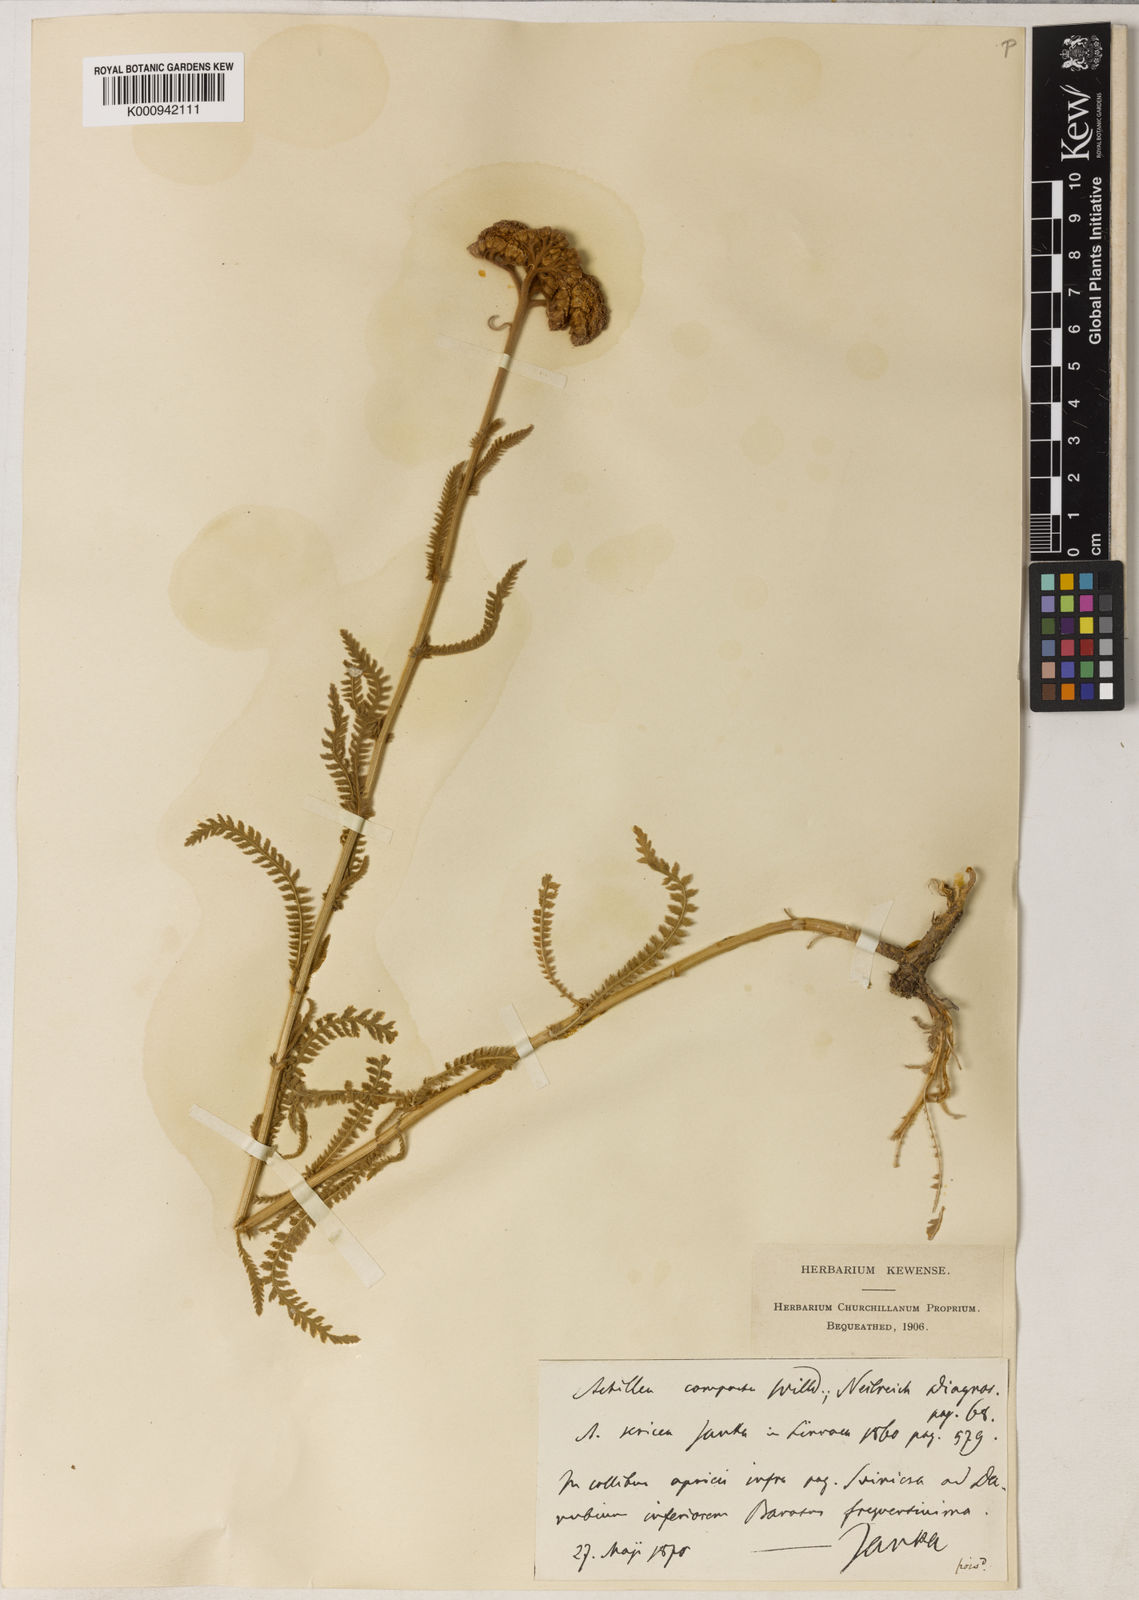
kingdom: Plantae
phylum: Tracheophyta
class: Magnoliopsida
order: Asterales
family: Asteraceae
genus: Achillea
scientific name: Achillea coarctata
